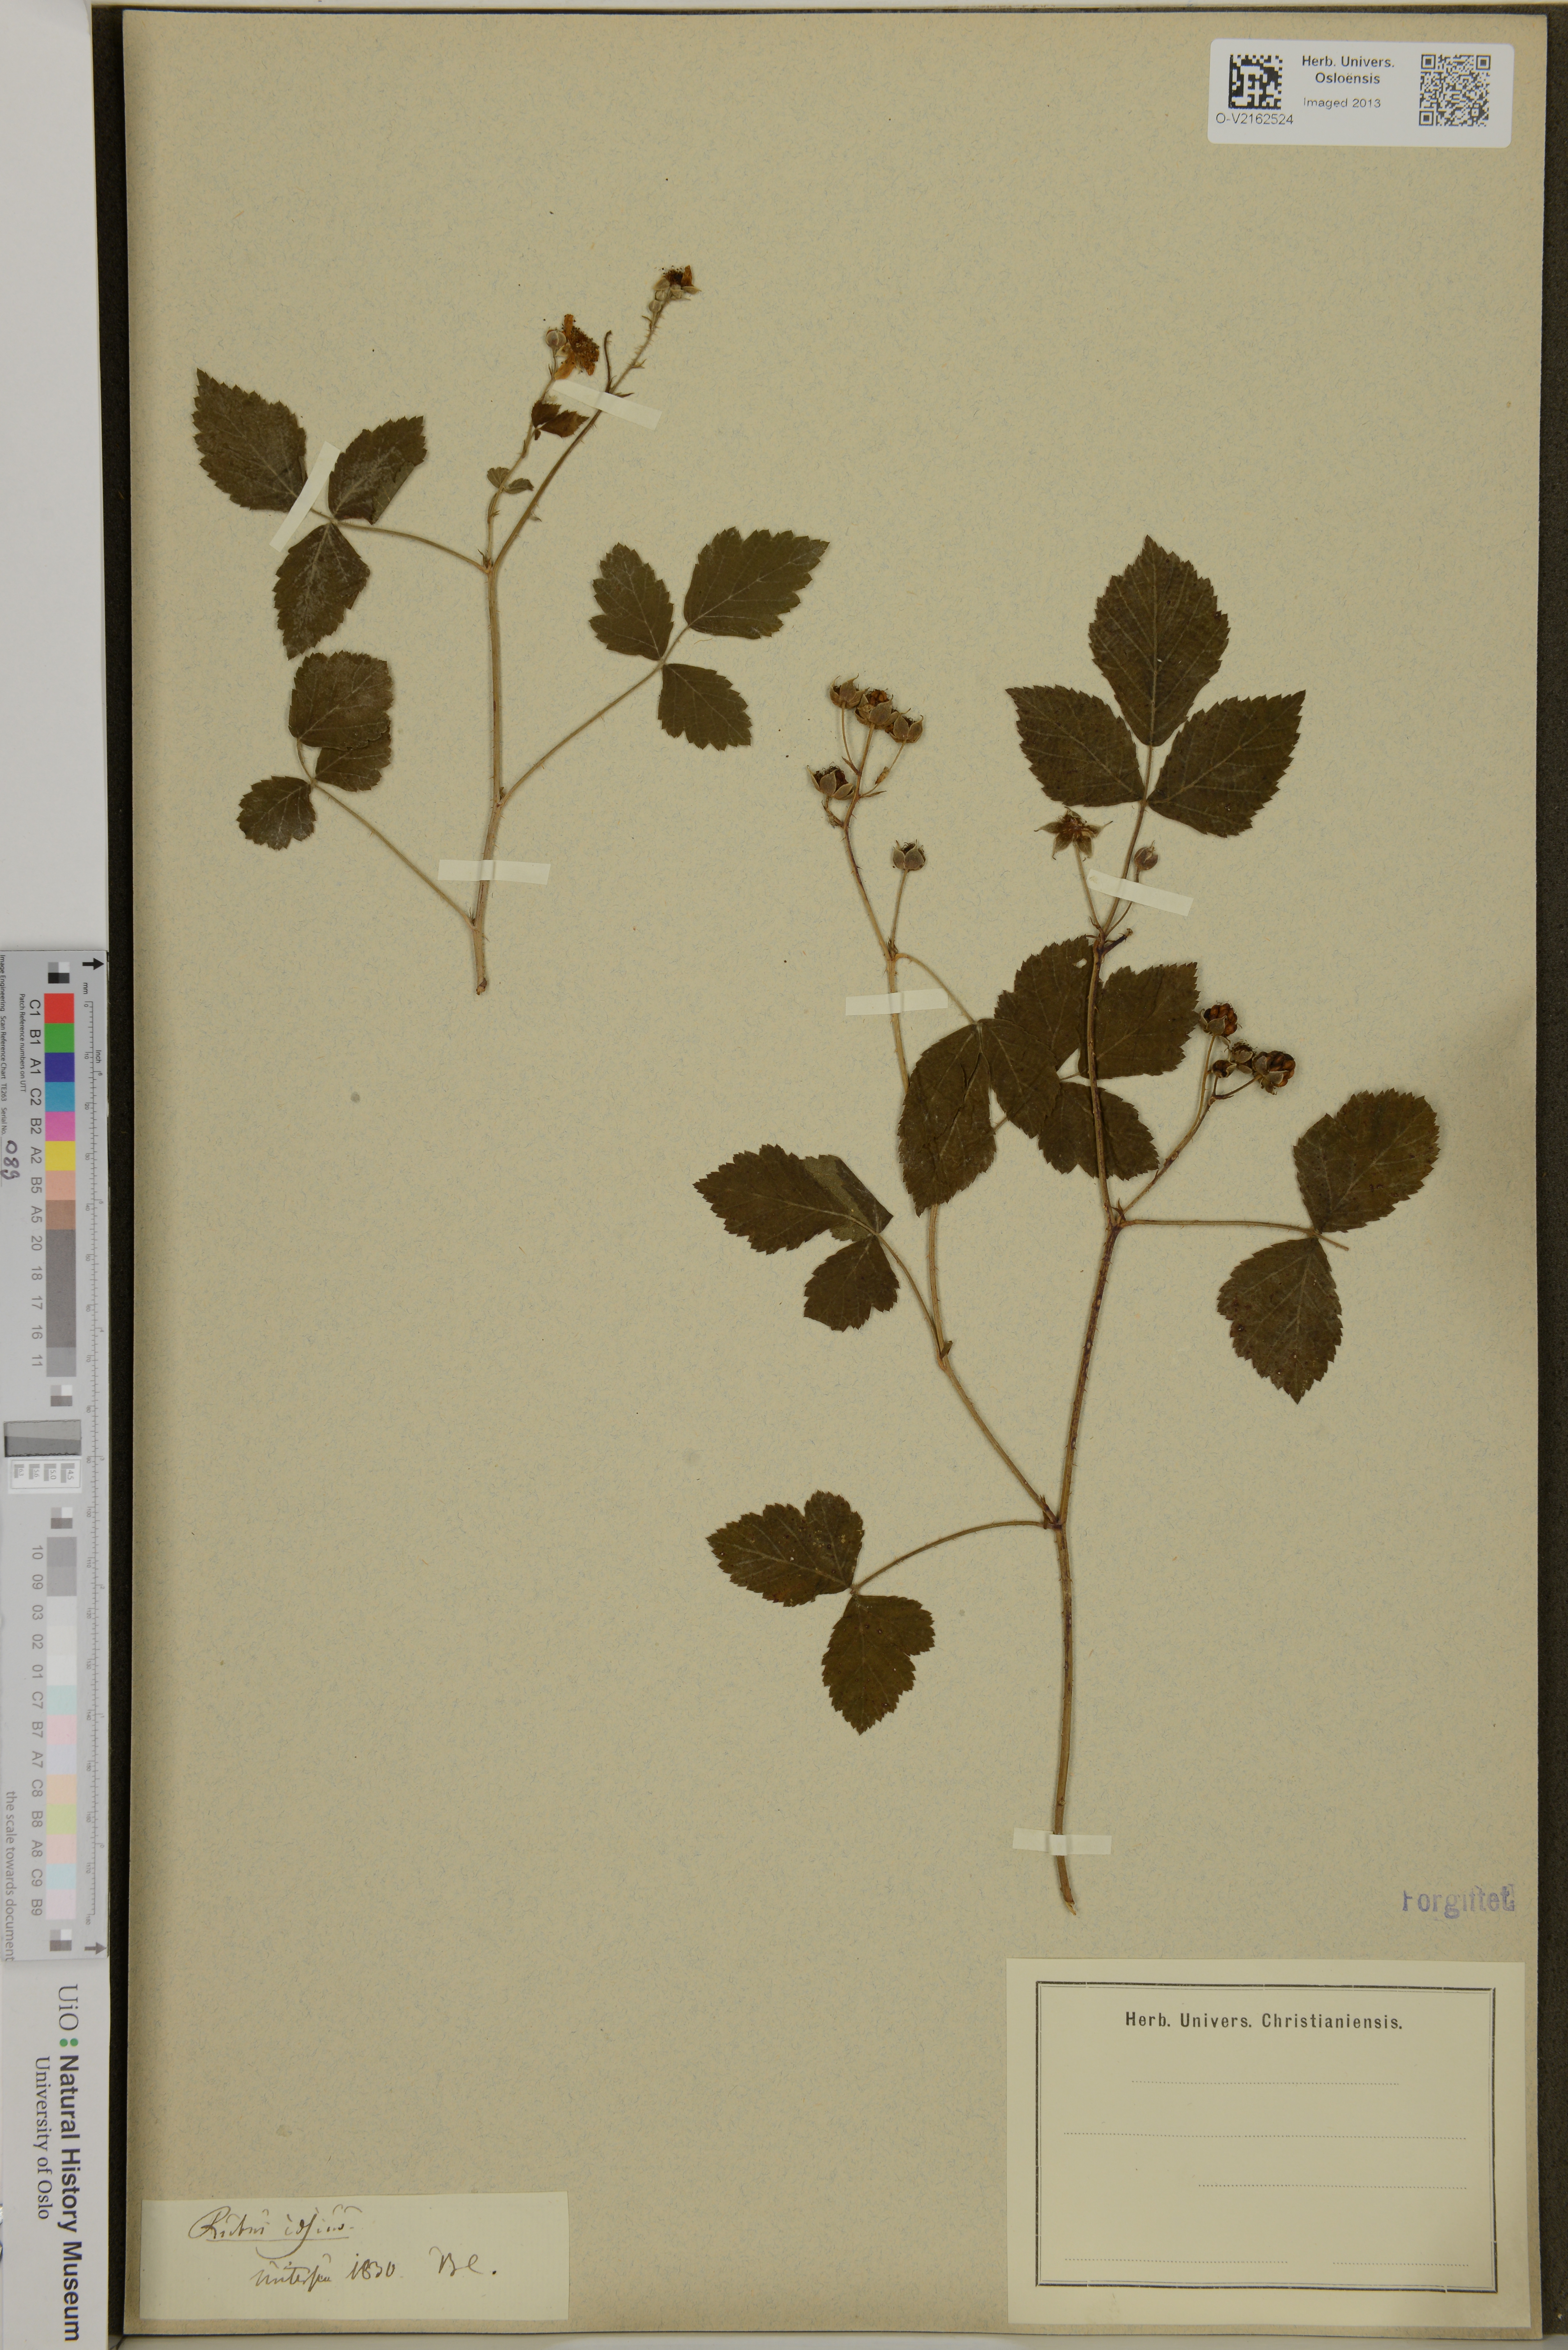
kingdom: Plantae
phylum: Tracheophyta
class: Magnoliopsida
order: Rosales
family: Rosaceae
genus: Rubus
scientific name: Rubus caesius
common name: Dewberry
